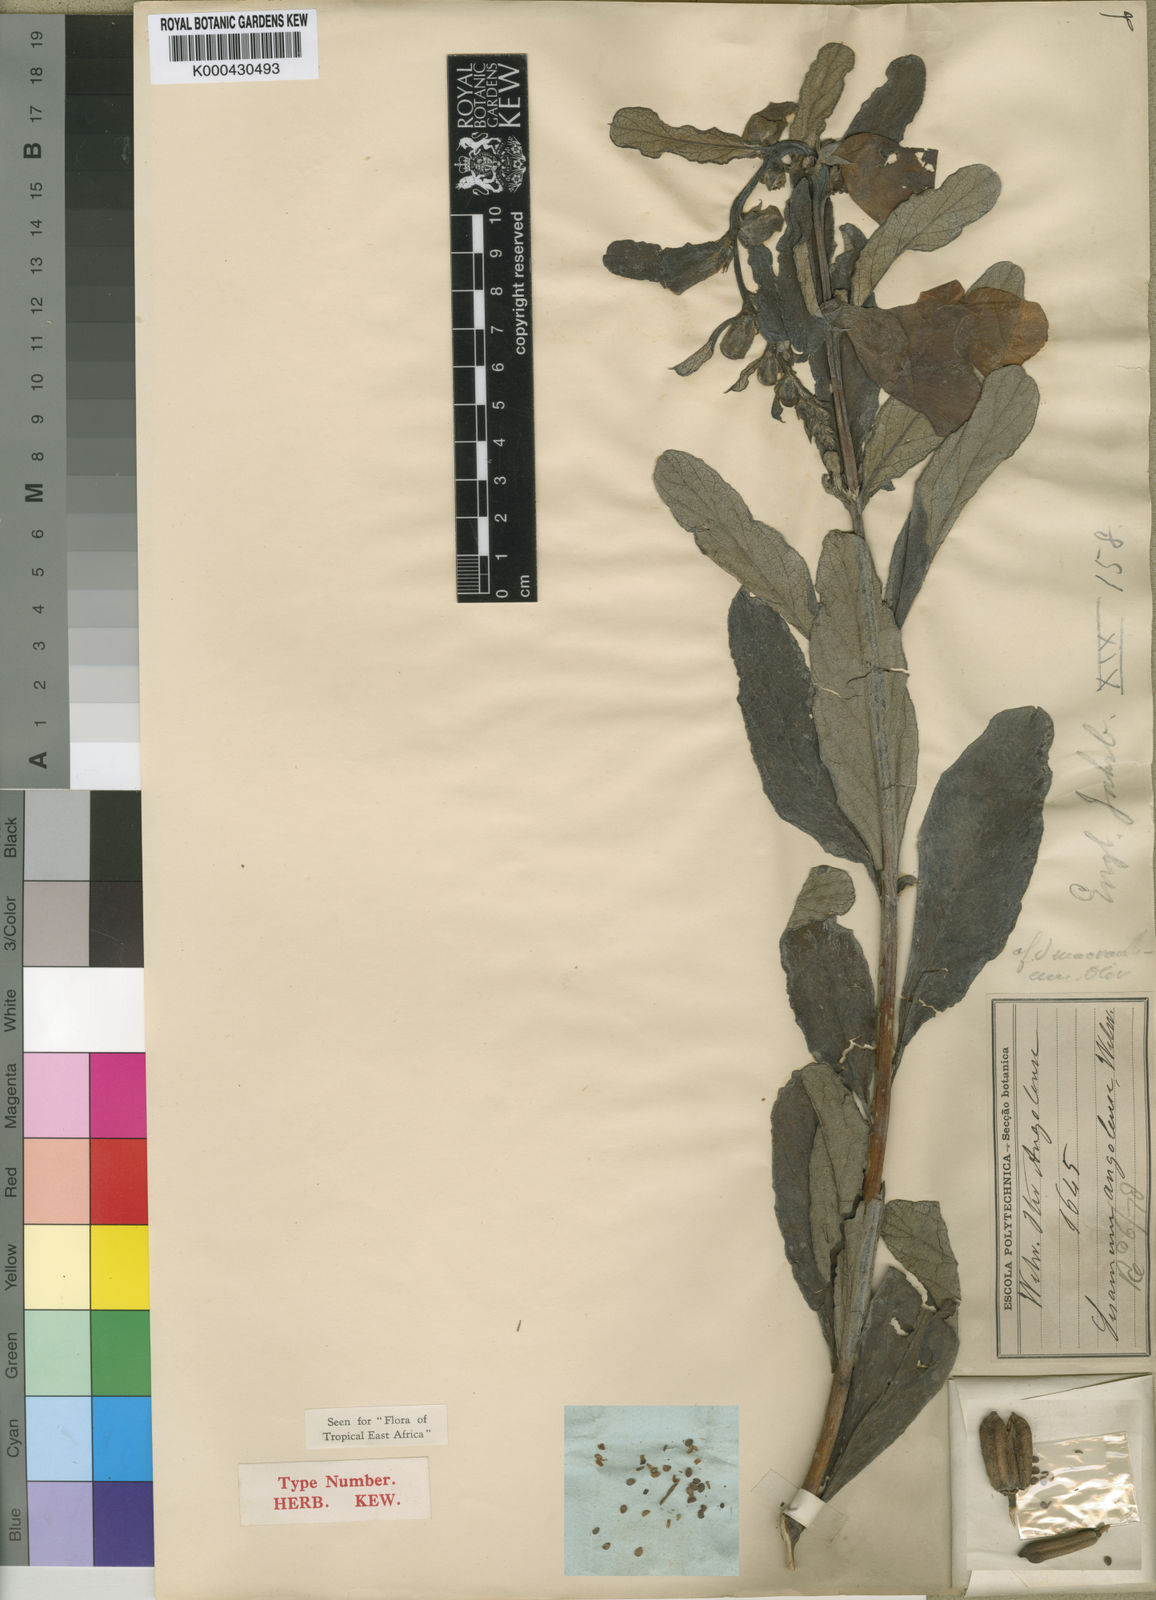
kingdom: Plantae
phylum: Tracheophyta
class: Magnoliopsida
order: Lamiales
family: Pedaliaceae
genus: Sesamum
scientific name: Sesamum angolense
